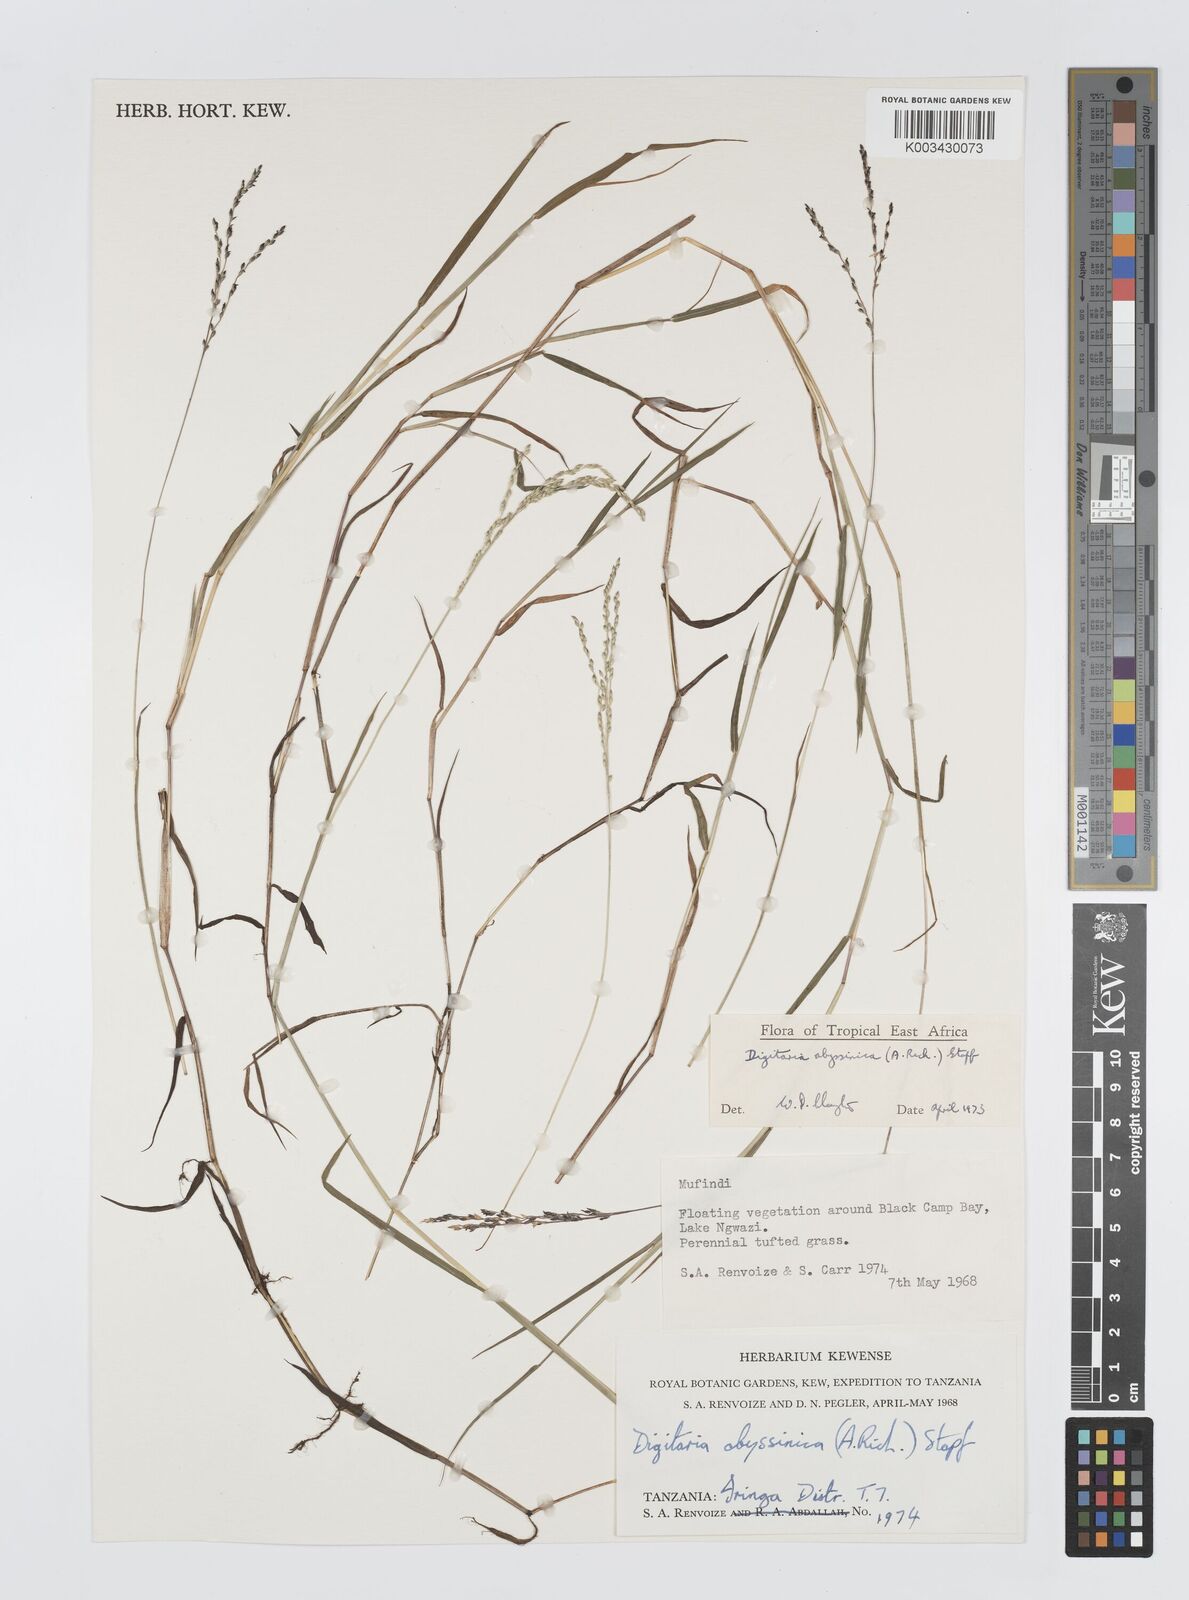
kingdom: Plantae
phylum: Tracheophyta
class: Liliopsida
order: Poales
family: Poaceae
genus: Digitaria
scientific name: Digitaria abyssinica
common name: African couchgrass
